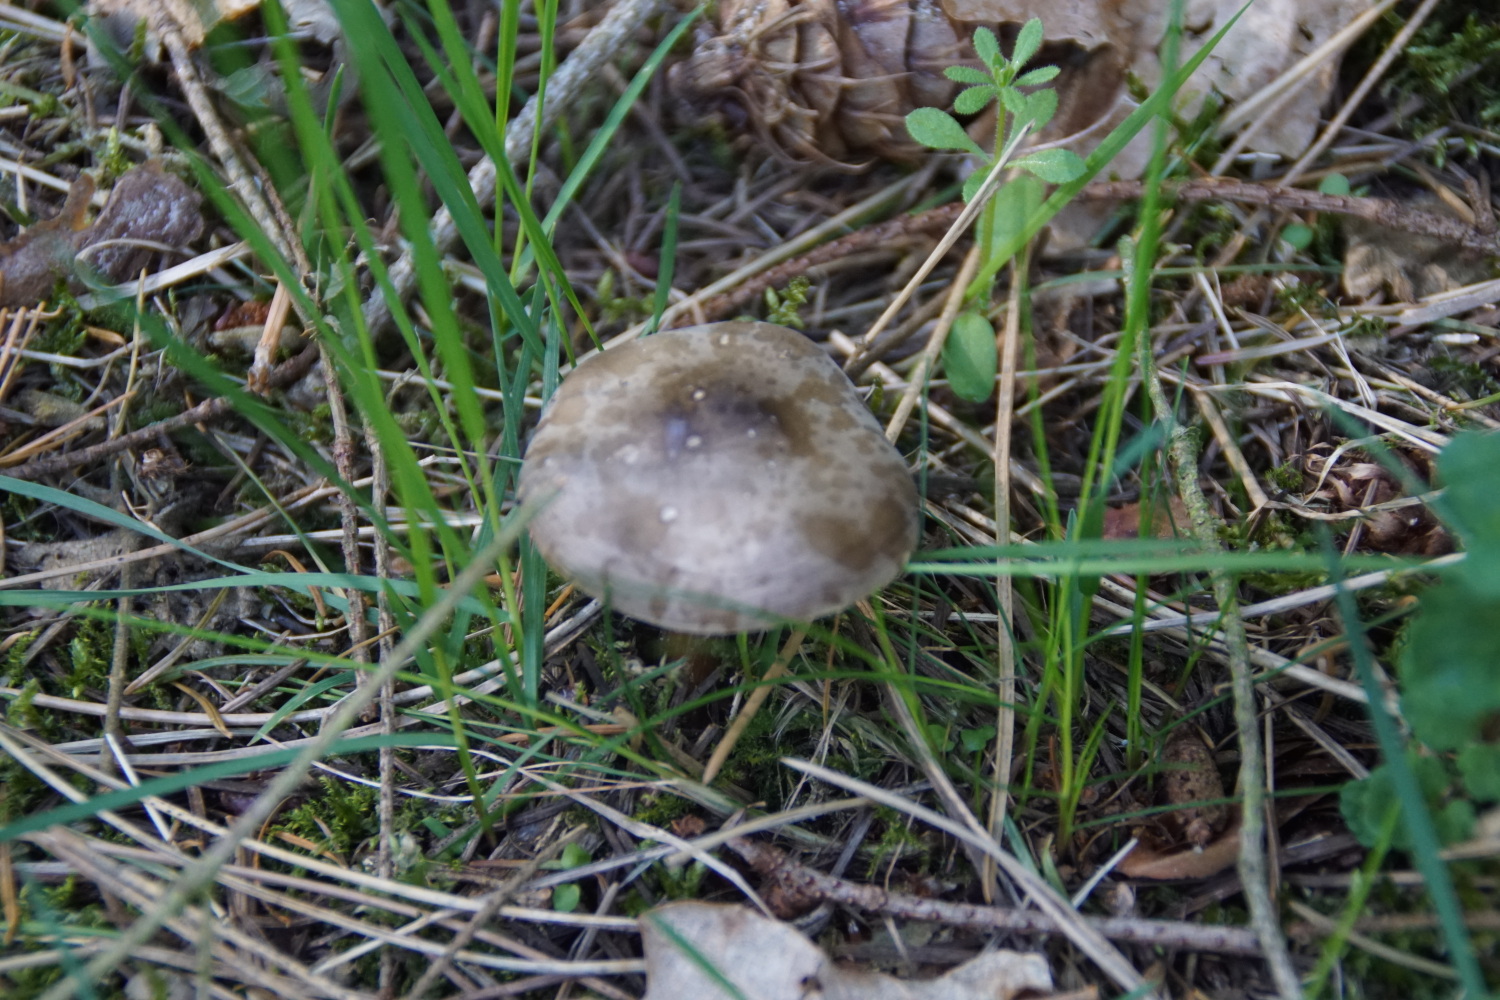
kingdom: Fungi
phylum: Basidiomycota
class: Agaricomycetes
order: Agaricales
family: Tricholomataceae
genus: Melanoleuca
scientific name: Melanoleuca cognata
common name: gyldengrå munkehat
